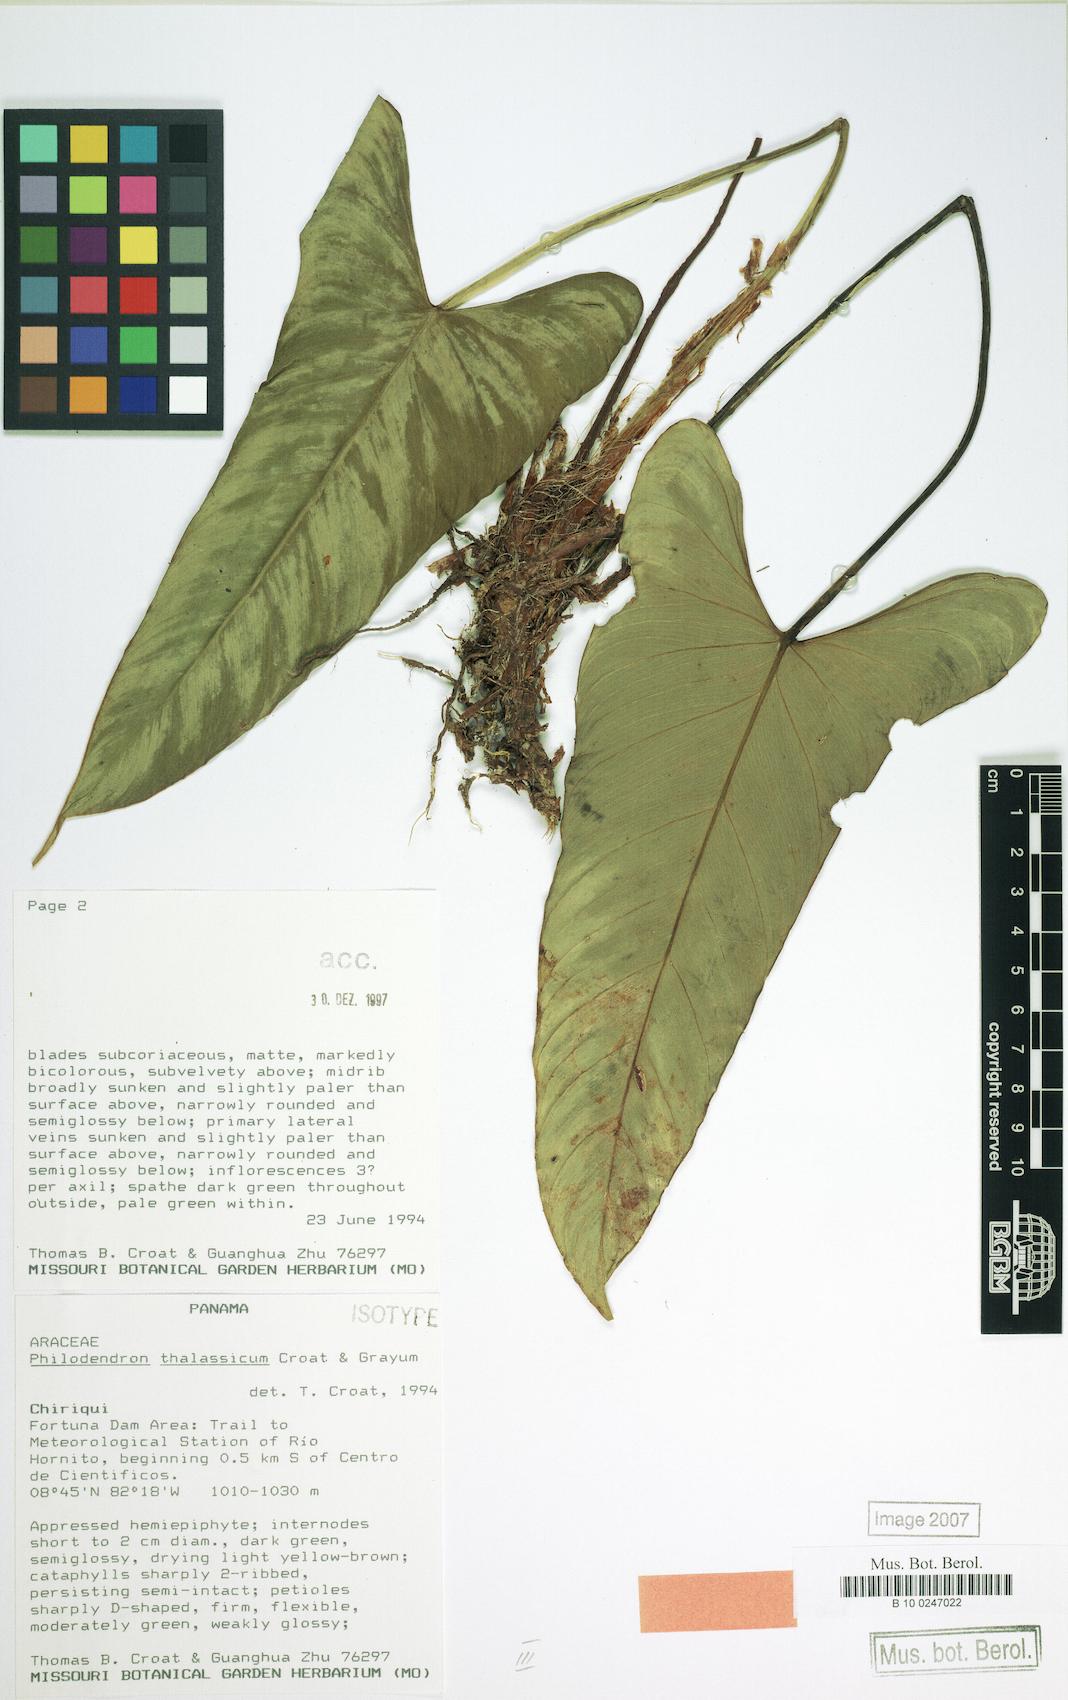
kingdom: Plantae
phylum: Tracheophyta
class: Liliopsida
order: Alismatales
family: Araceae
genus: Philodendron
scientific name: Philodendron thalassicum
